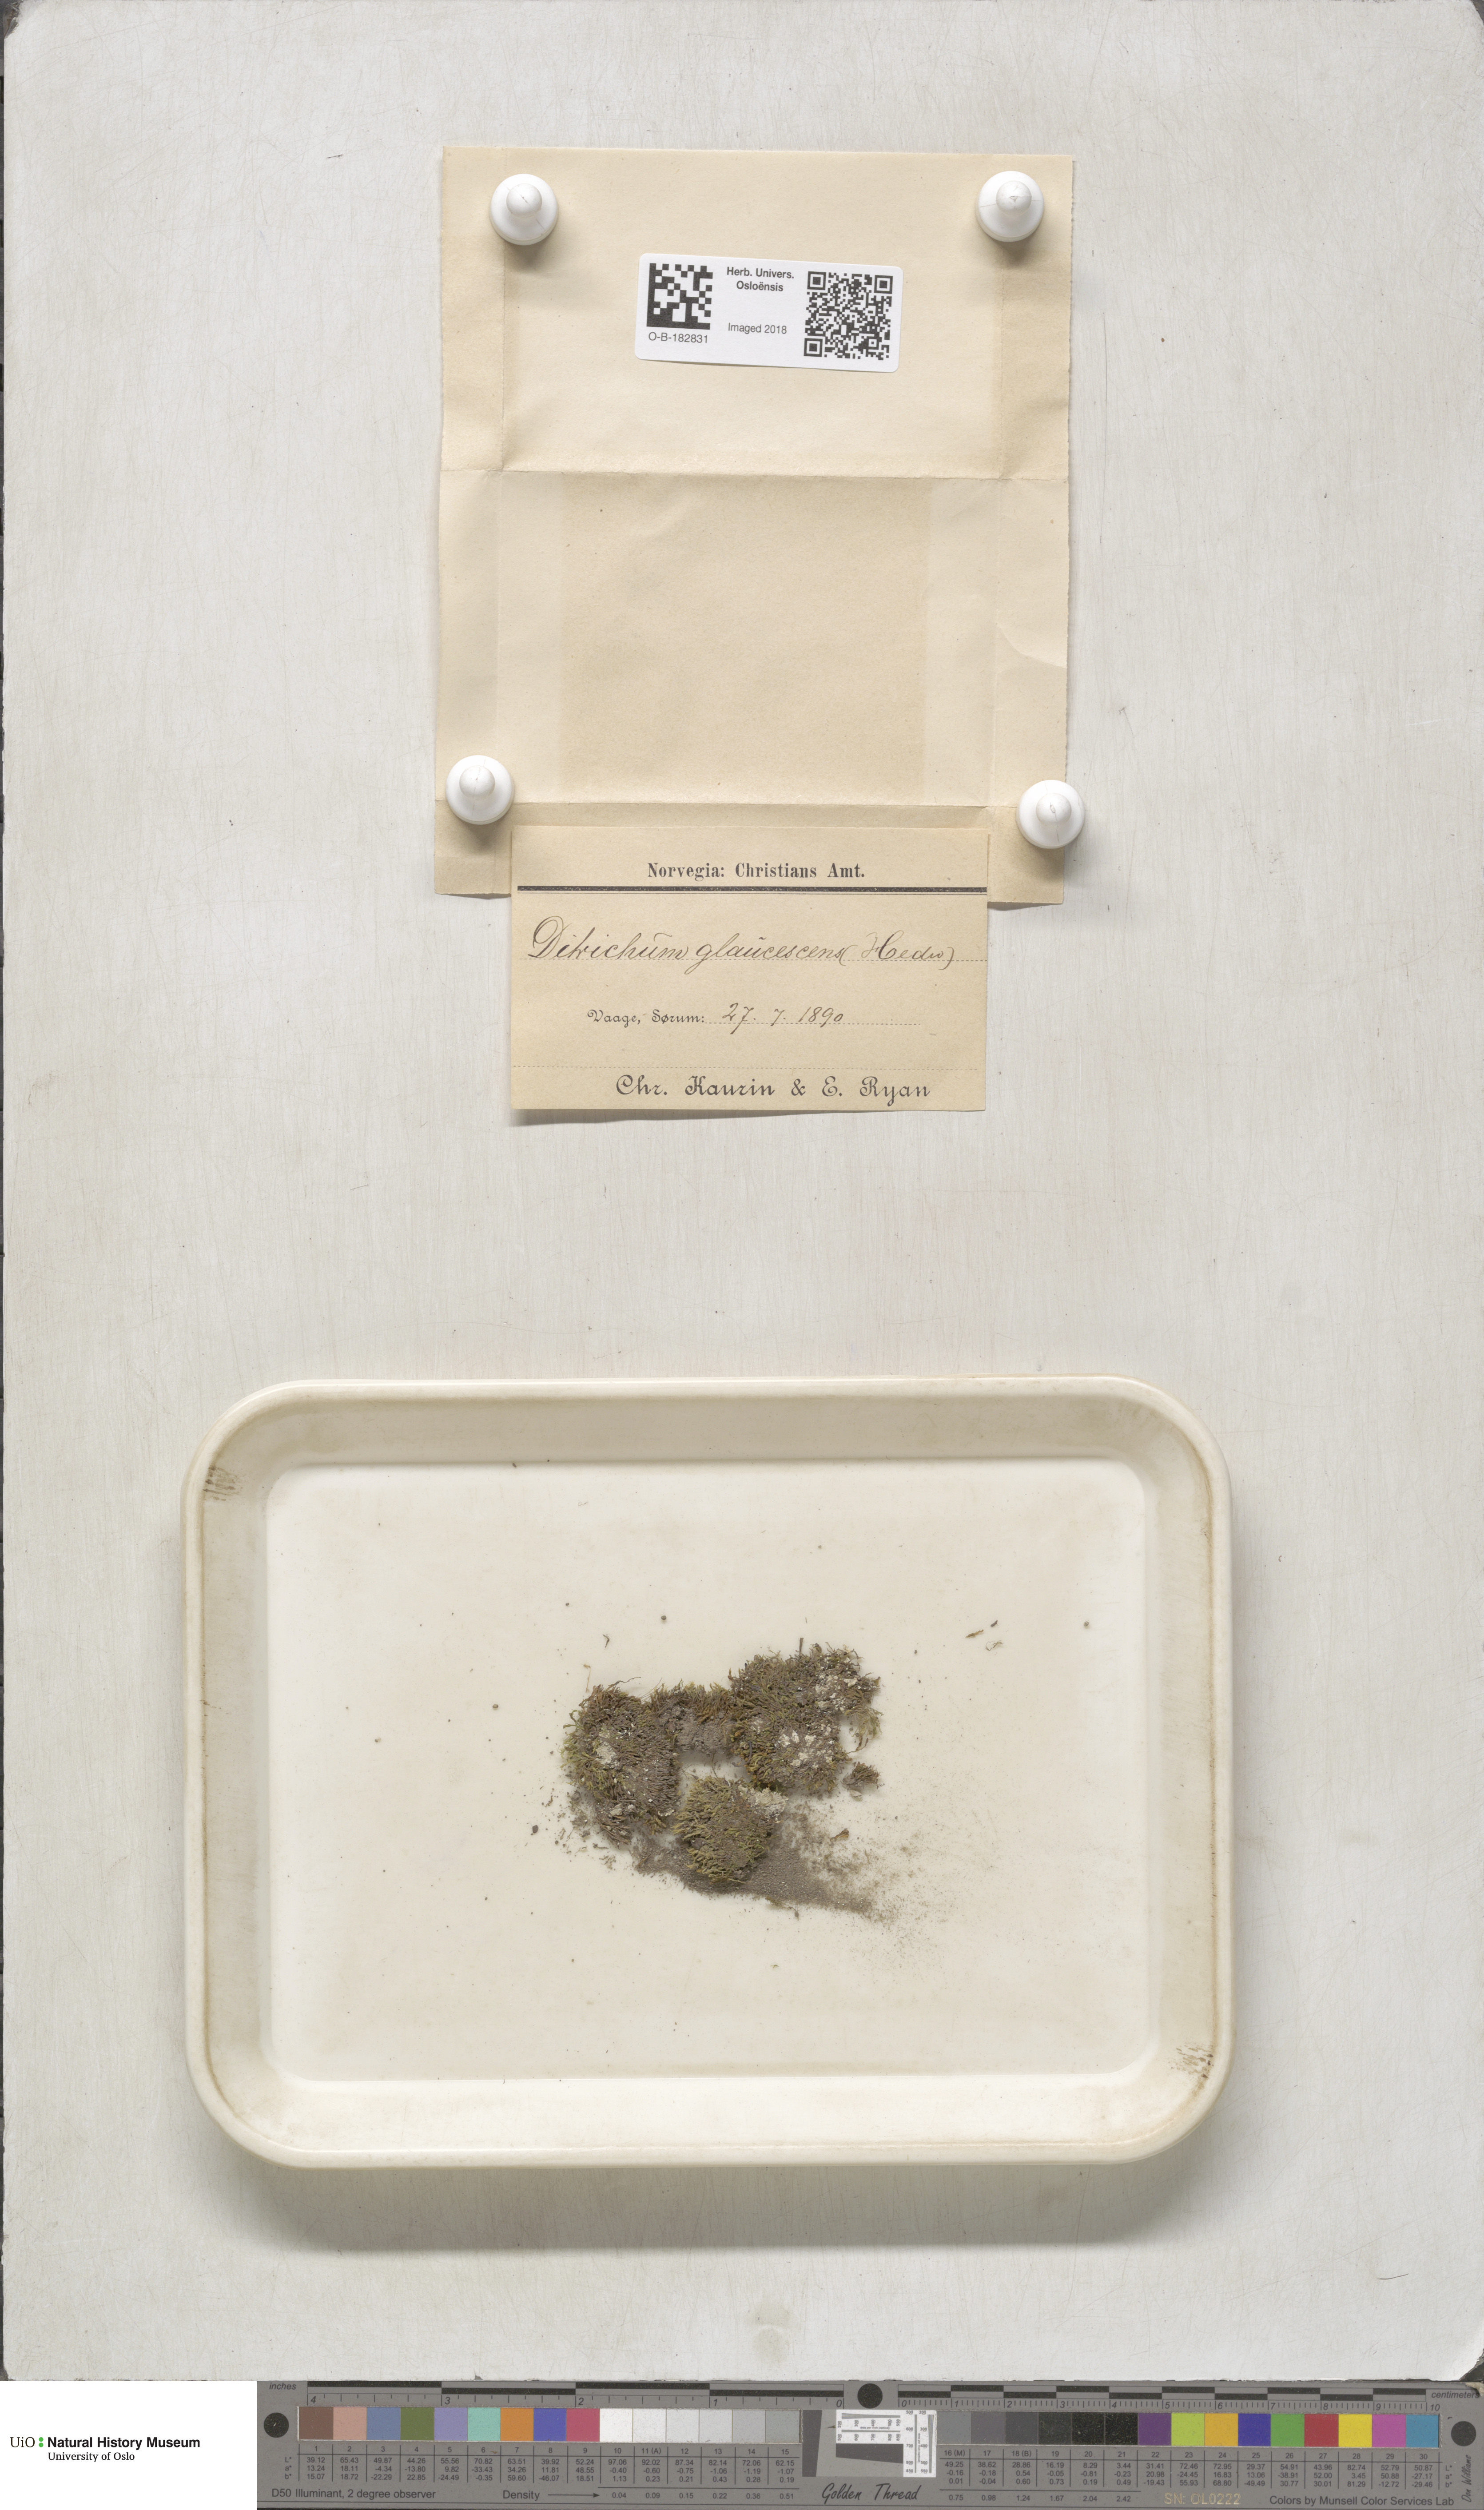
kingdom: Plantae
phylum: Bryophyta
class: Bryopsida
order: Grimmiales
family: Saelaniaceae
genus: Saelania
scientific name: Saelania glaucescens
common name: Blue dew-moss
